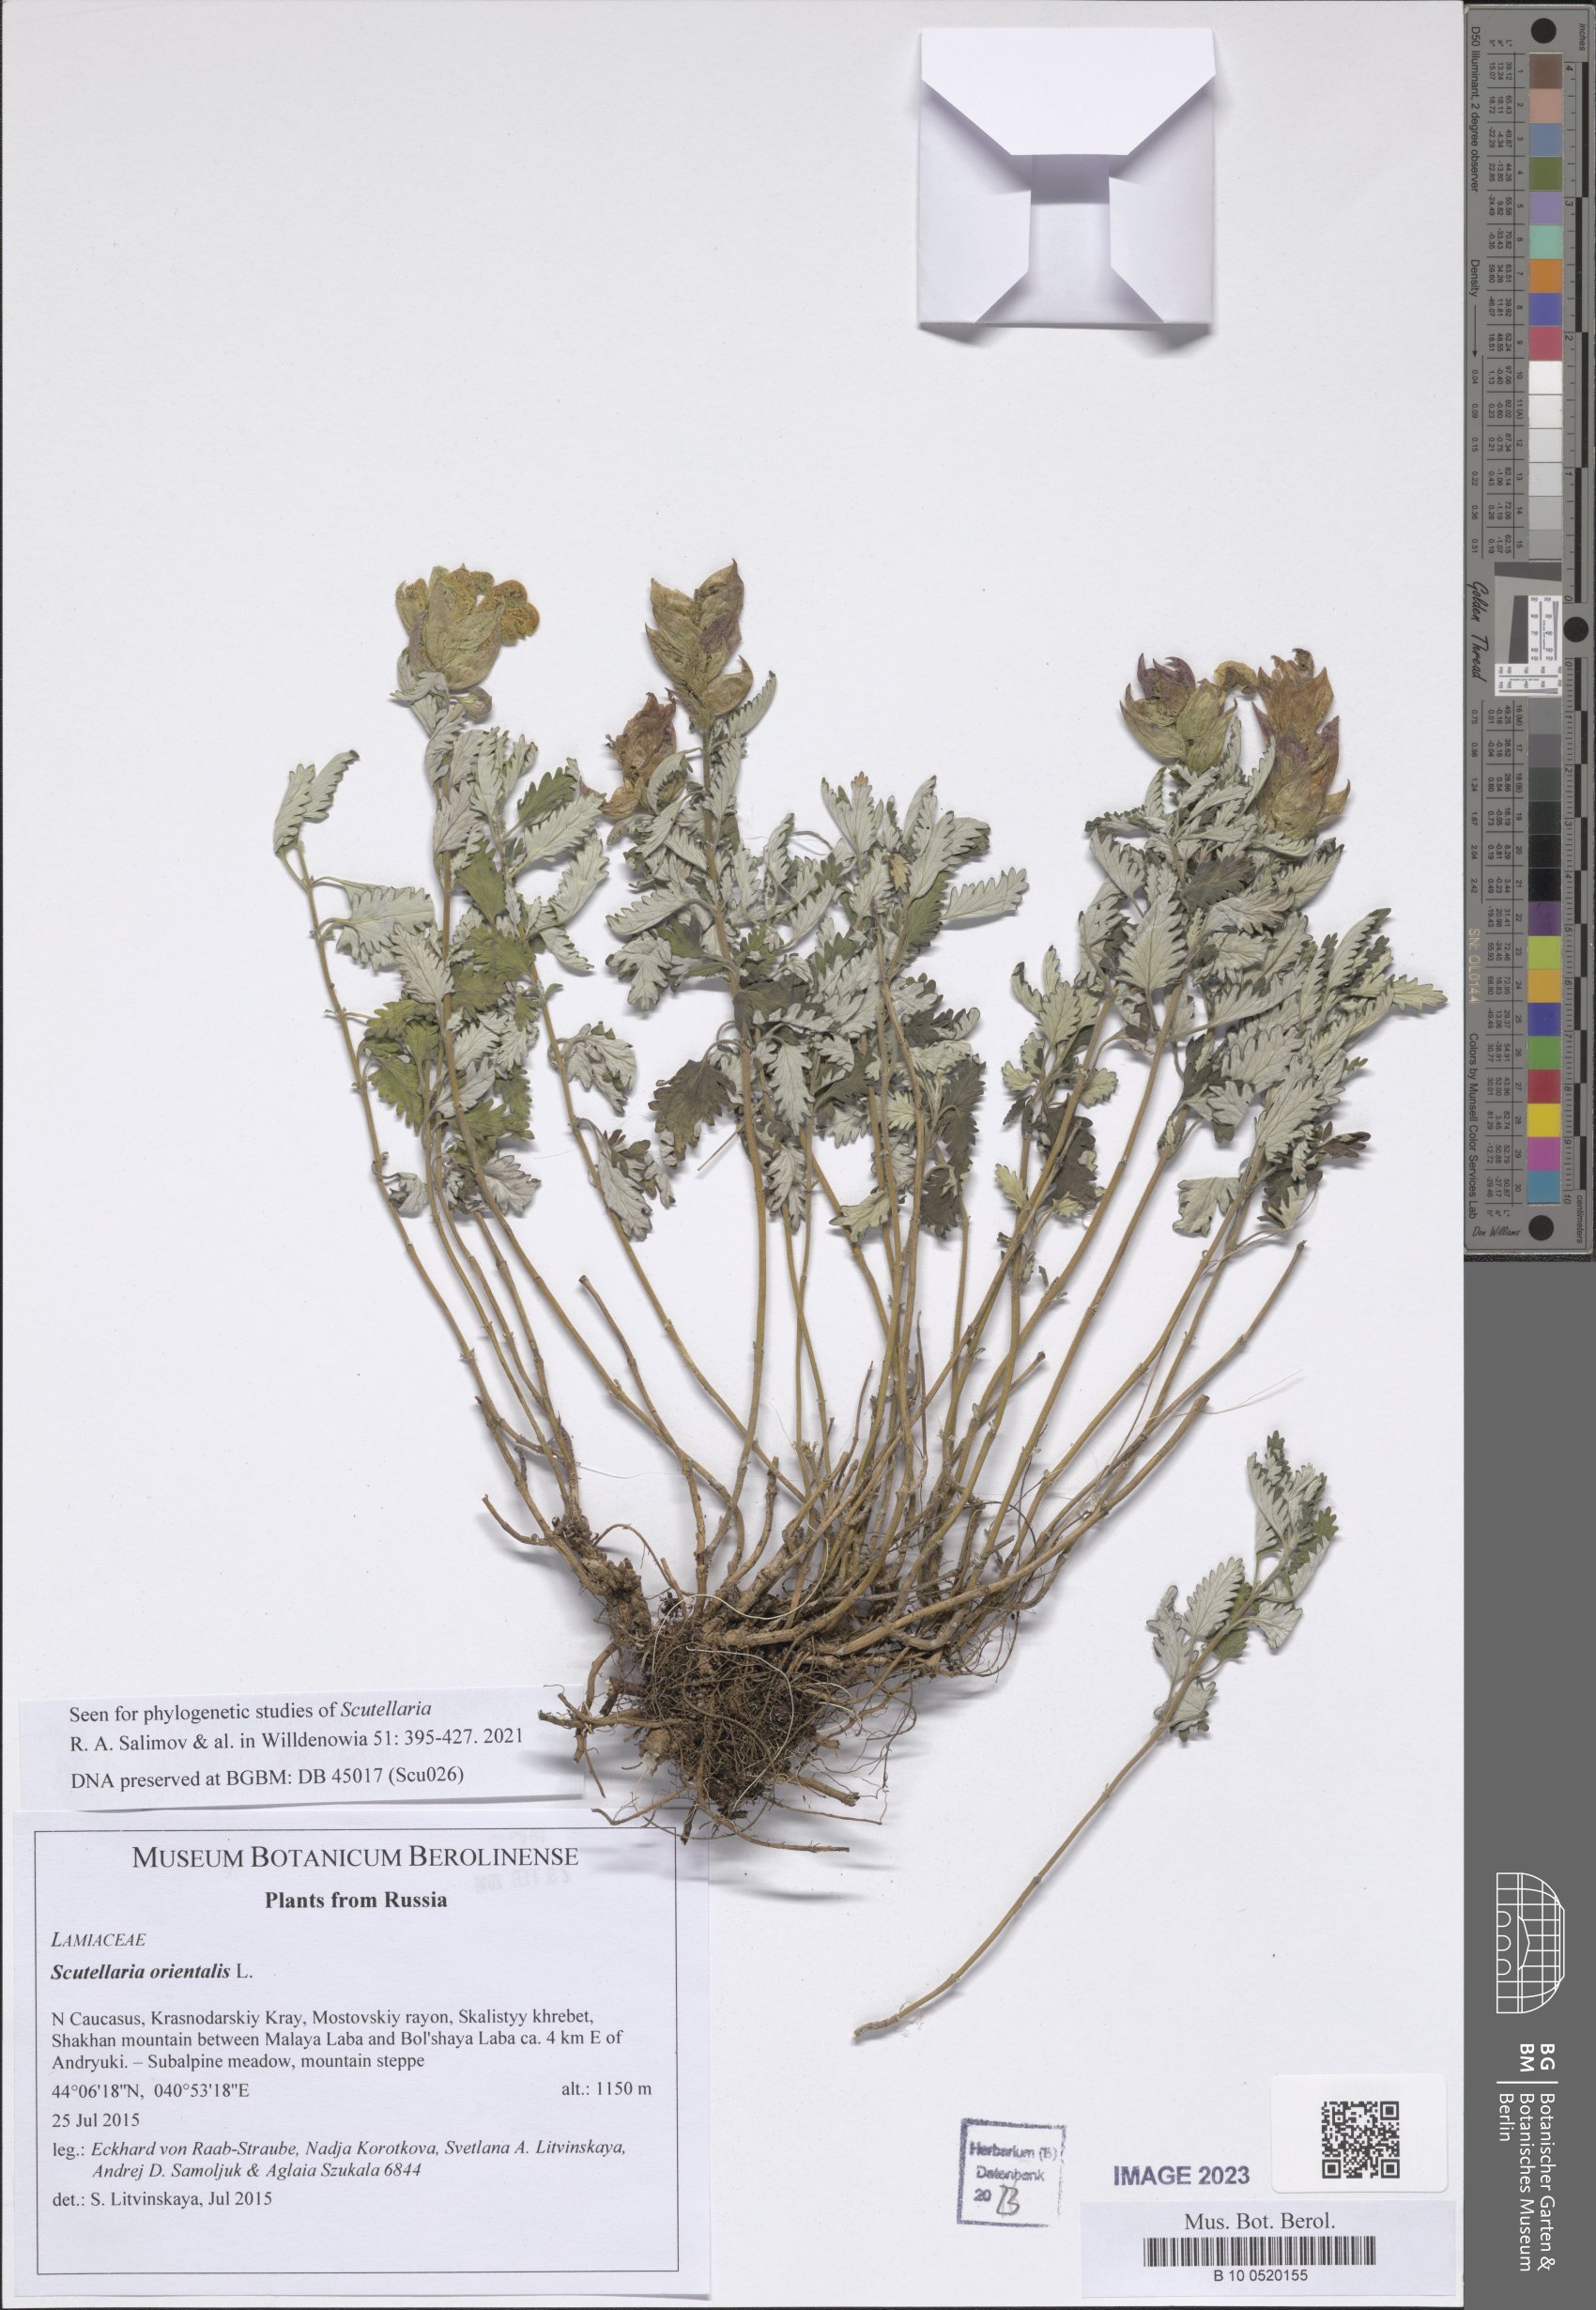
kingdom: Plantae
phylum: Tracheophyta
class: Magnoliopsida
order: Lamiales
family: Lamiaceae
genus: Scutellaria
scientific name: Scutellaria orientalis
